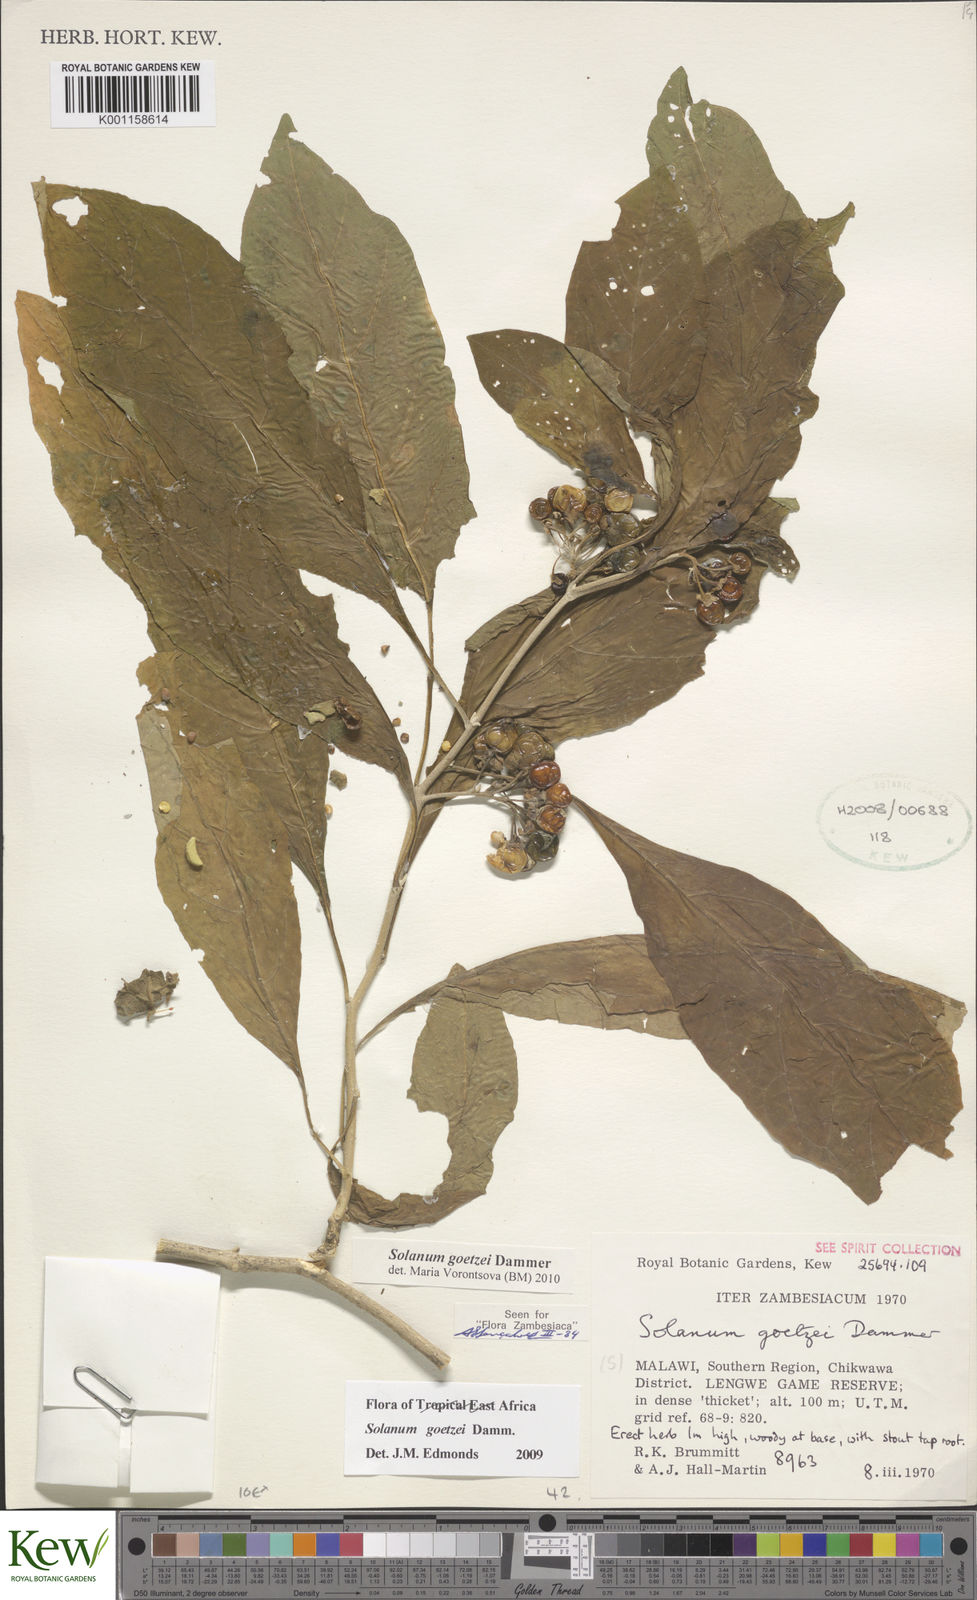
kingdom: Plantae
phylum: Tracheophyta
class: Magnoliopsida
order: Solanales
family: Solanaceae
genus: Solanum
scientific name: Solanum goetzei
